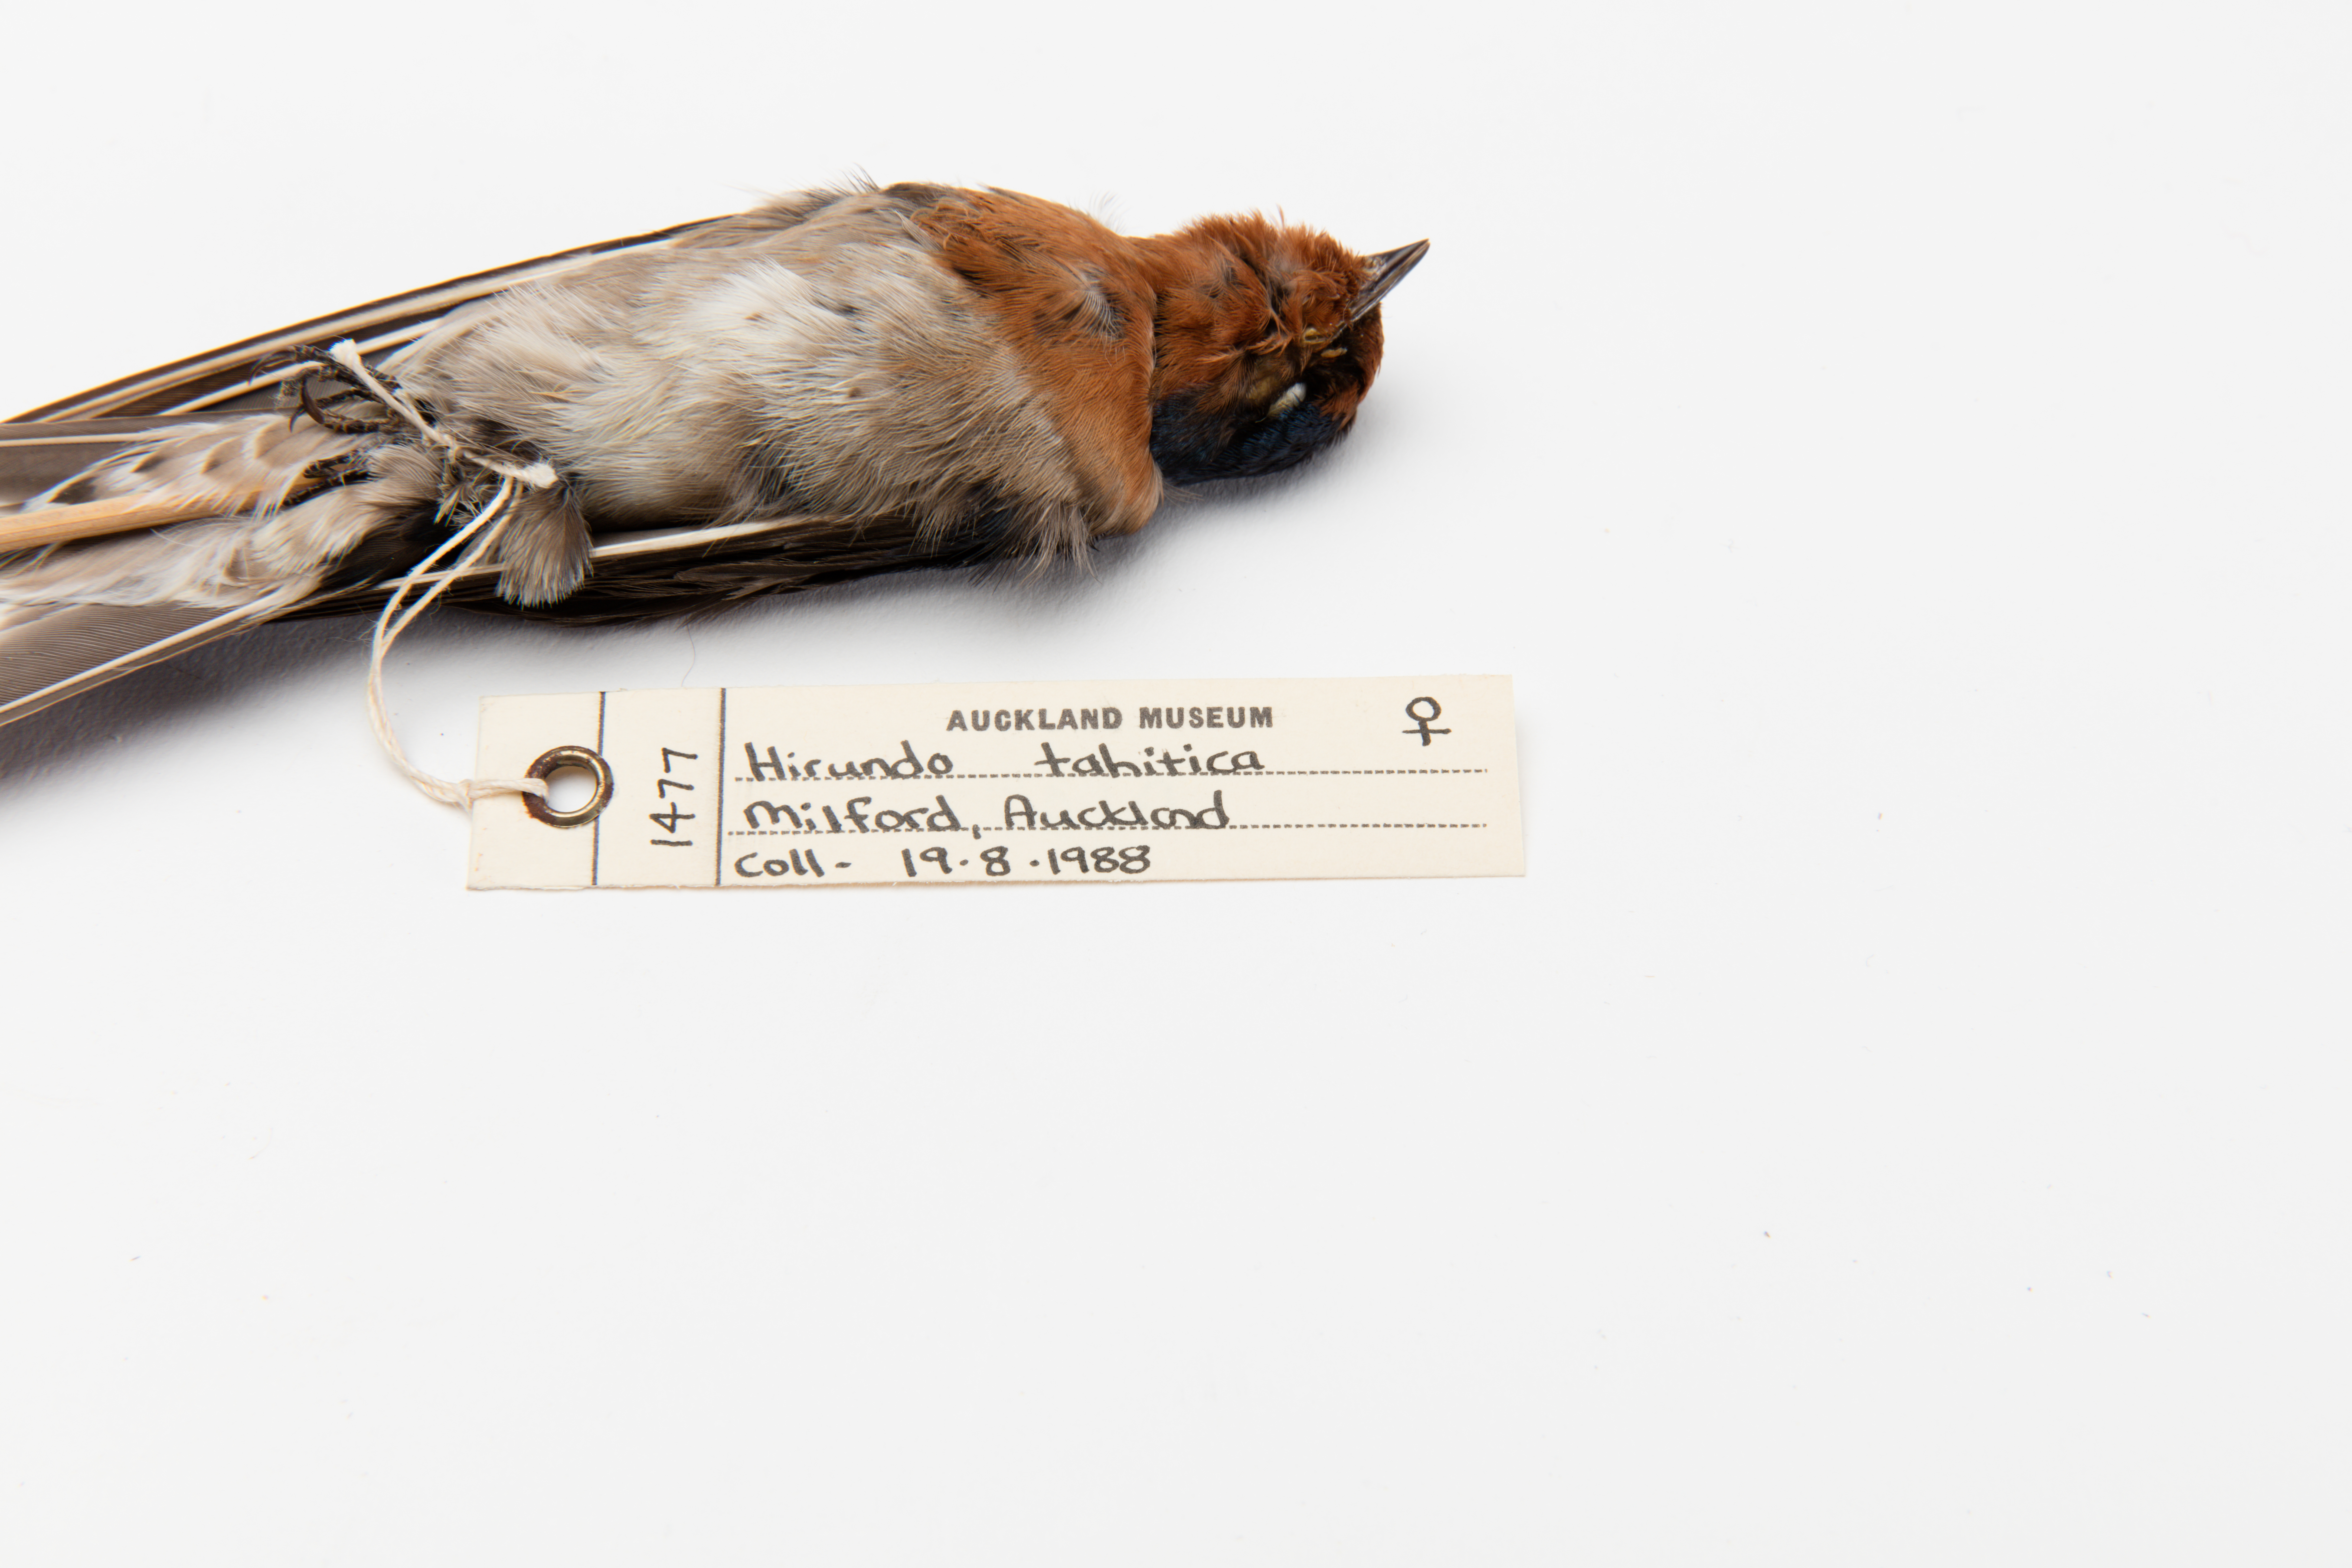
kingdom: Animalia
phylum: Chordata
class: Aves
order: Passeriformes
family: Hirundinidae
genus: Hirundo
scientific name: Hirundo neoxena
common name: Welcome swallow
